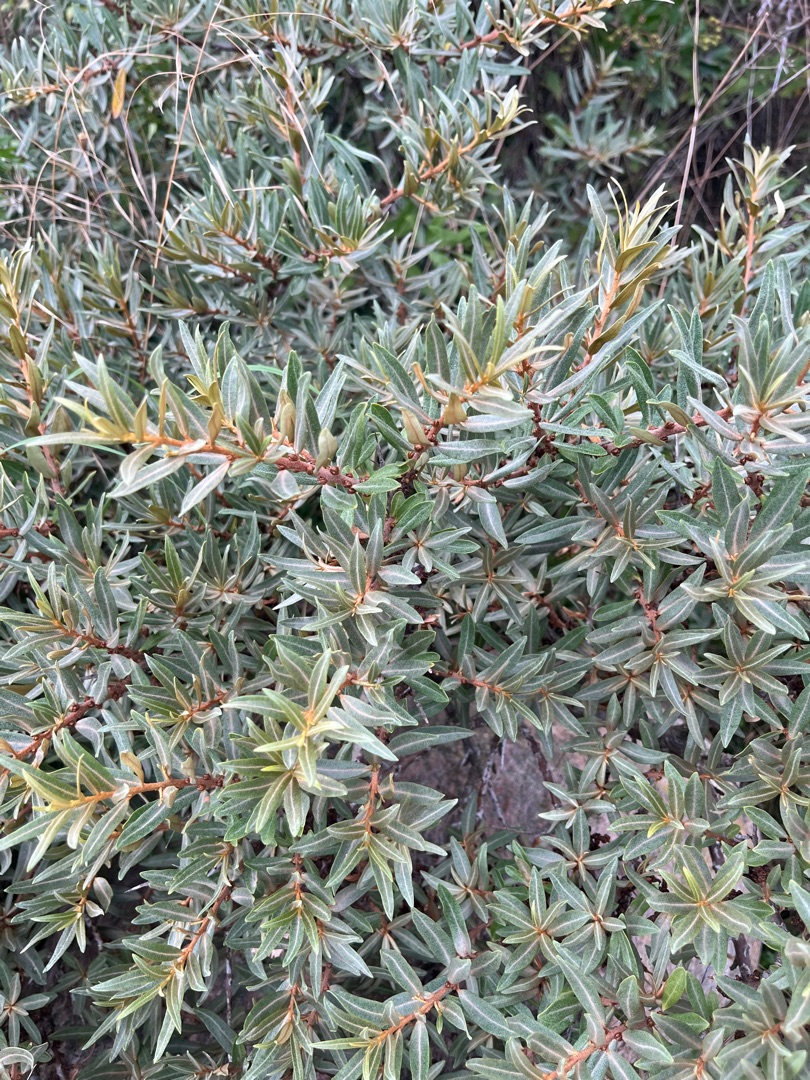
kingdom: Plantae
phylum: Tracheophyta
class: Magnoliopsida
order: Rosales
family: Elaeagnaceae
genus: Hippophae
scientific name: Hippophae rhamnoides
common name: Havtorn
